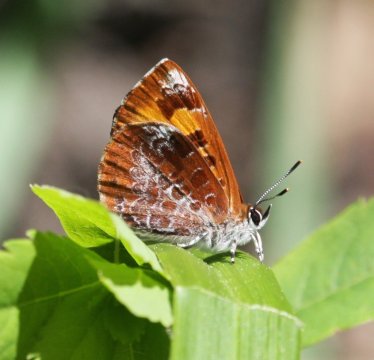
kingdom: Animalia
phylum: Arthropoda
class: Insecta
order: Lepidoptera
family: Lycaenidae
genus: Feniseca
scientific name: Feniseca tarquinius
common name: Harvester
